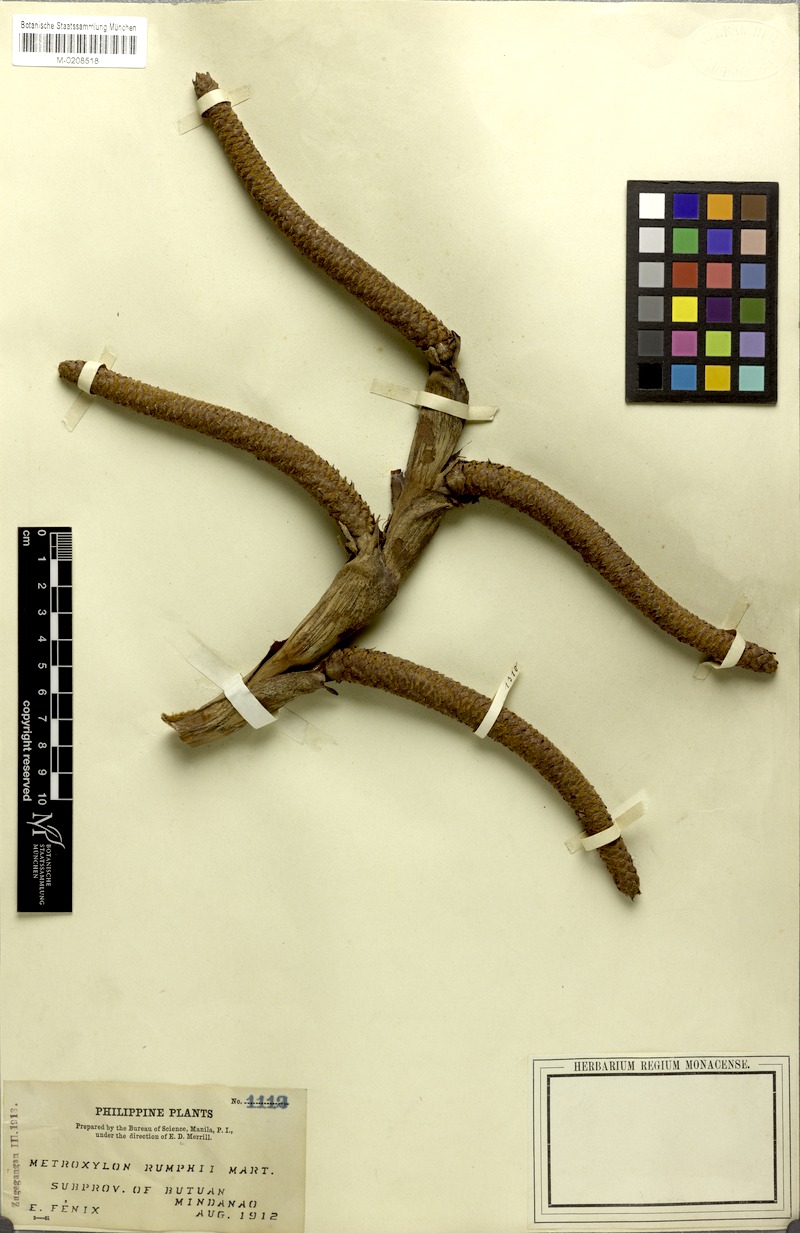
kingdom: Plantae
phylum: Tracheophyta
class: Liliopsida
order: Arecales
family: Arecaceae
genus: Metroxylon
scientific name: Metroxylon sagu
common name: Sago palm
